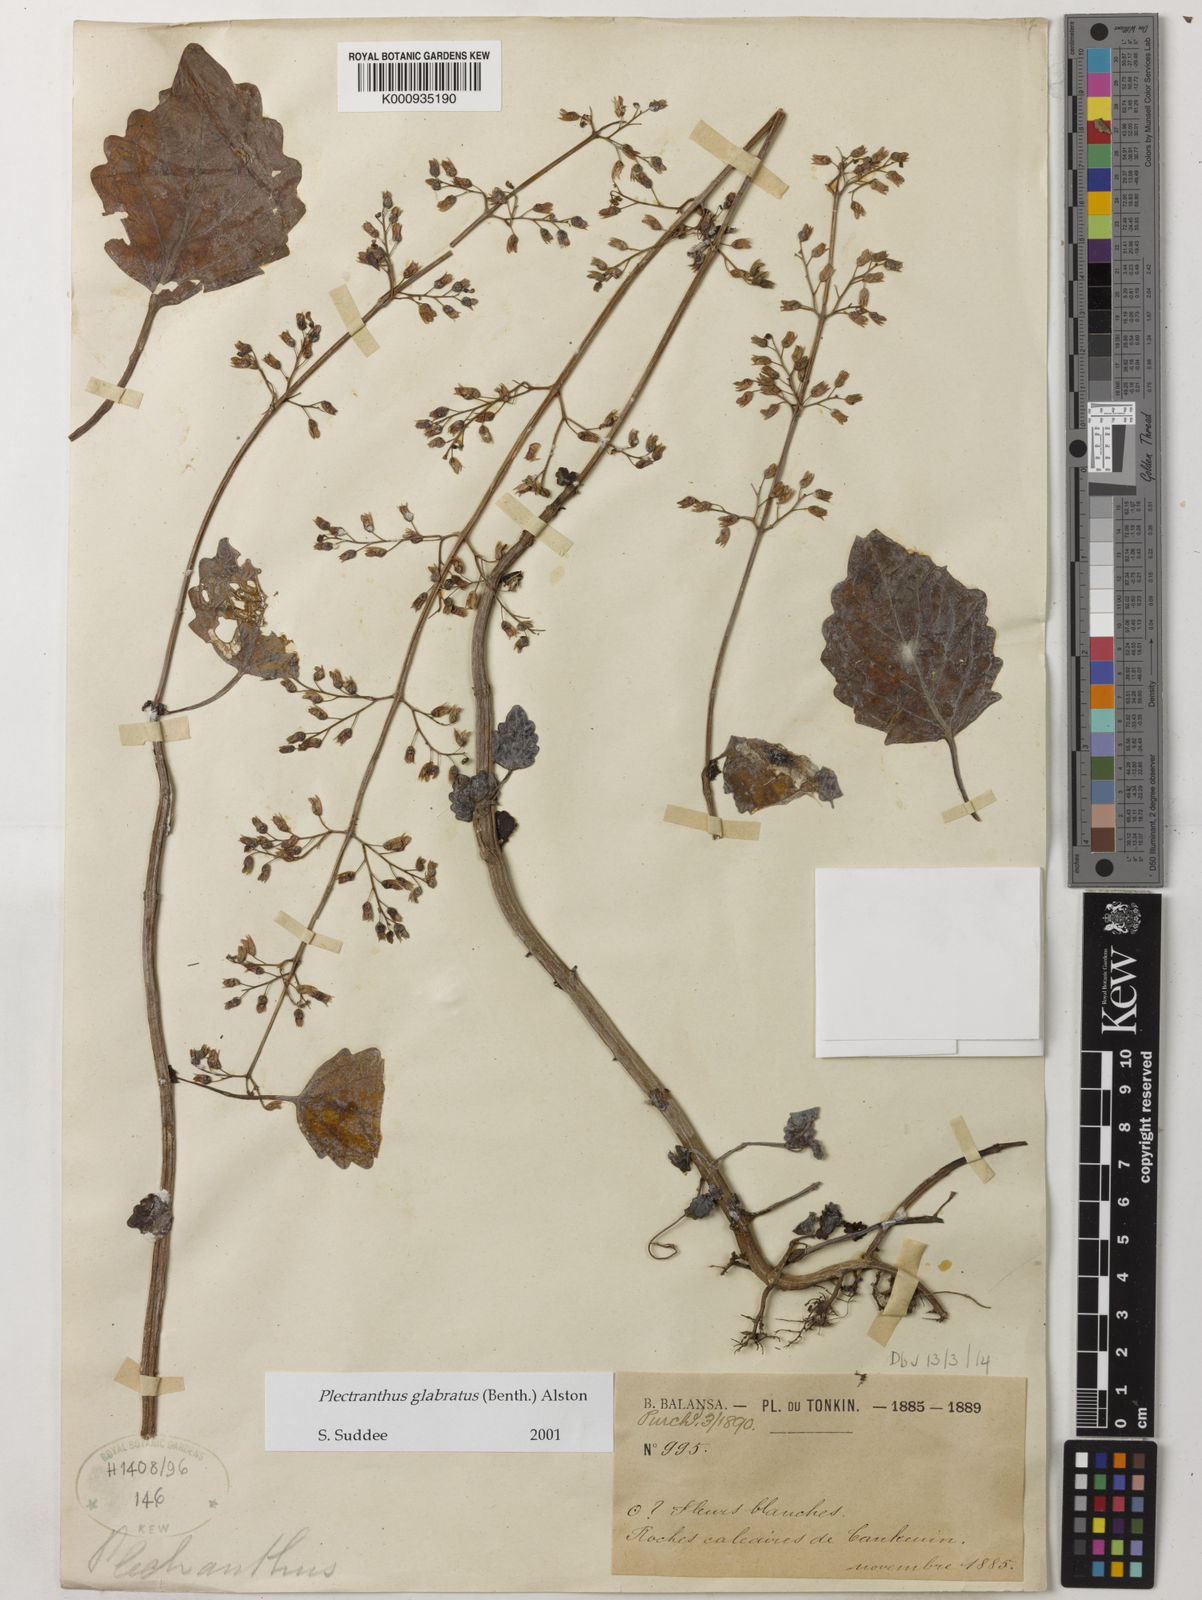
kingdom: Plantae
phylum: Tracheophyta
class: Magnoliopsida
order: Lamiales
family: Lamiaceae
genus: Coleus
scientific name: Coleus paniculatus
